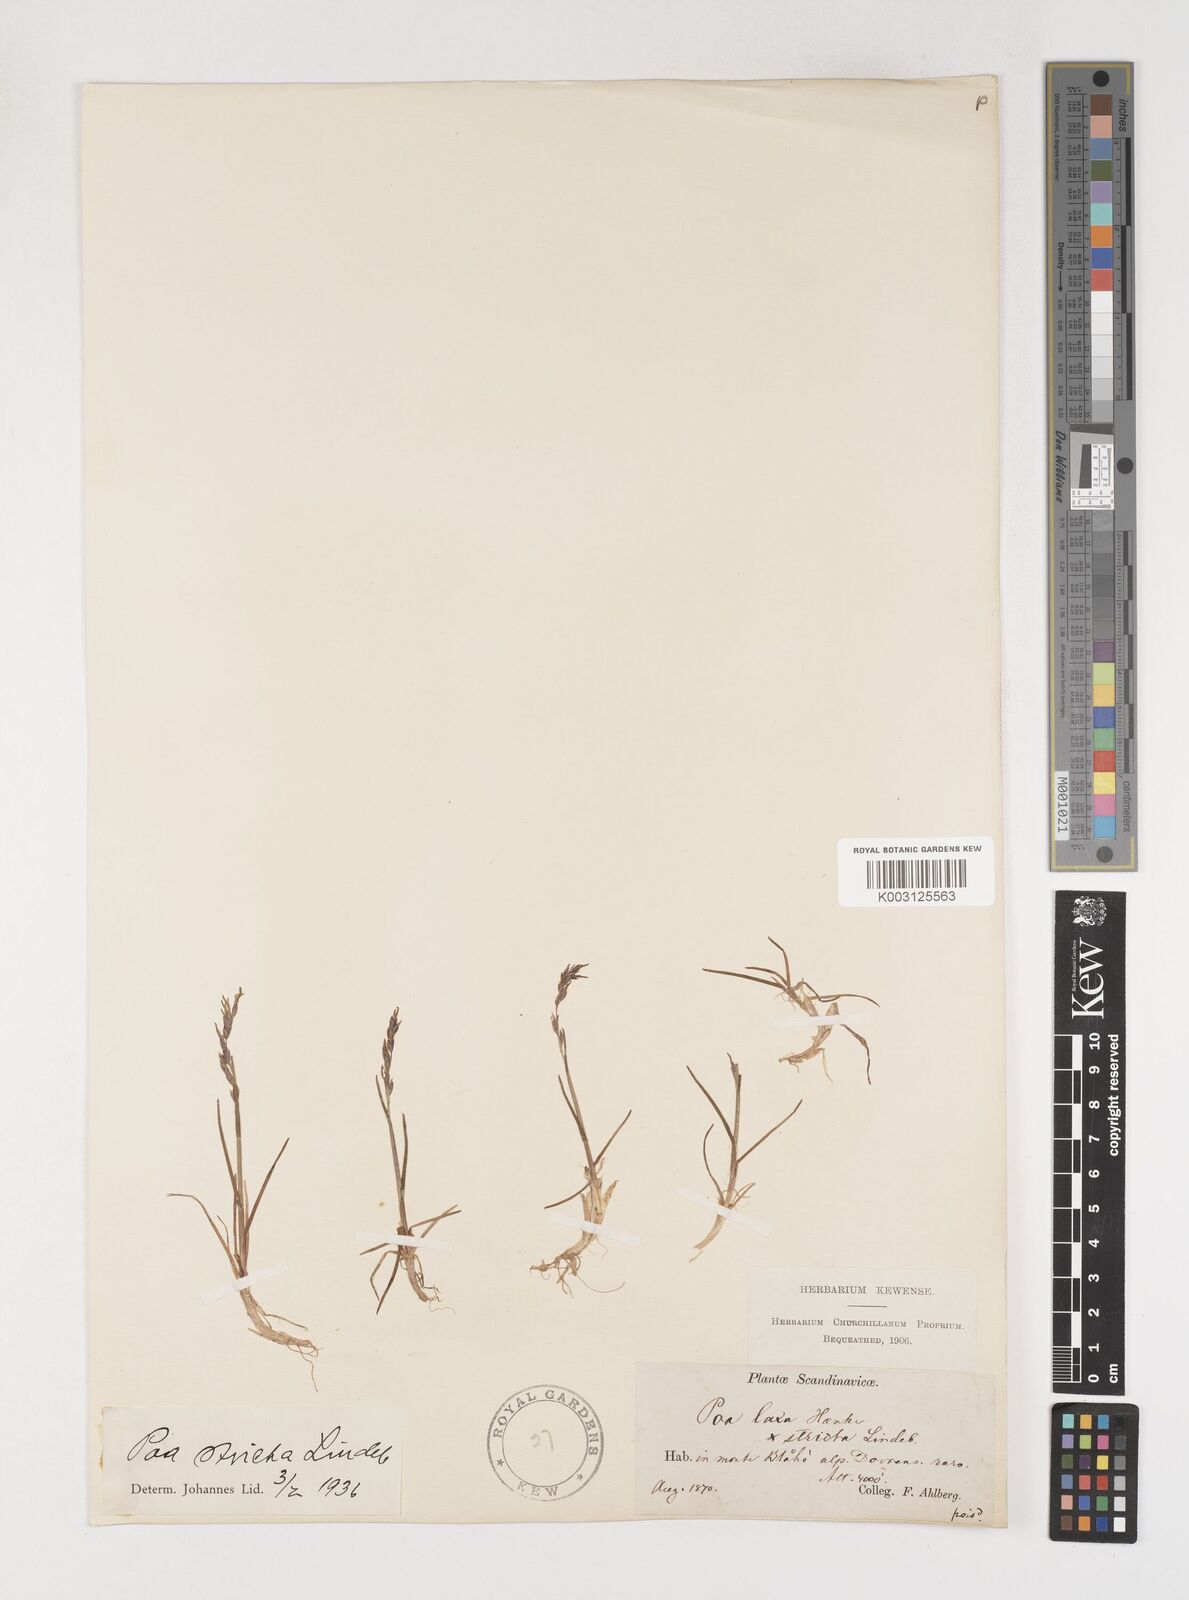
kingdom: Plantae
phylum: Tracheophyta
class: Liliopsida
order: Poales
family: Poaceae
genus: Poa
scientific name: Poa arctica
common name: Arctic bluegrass
